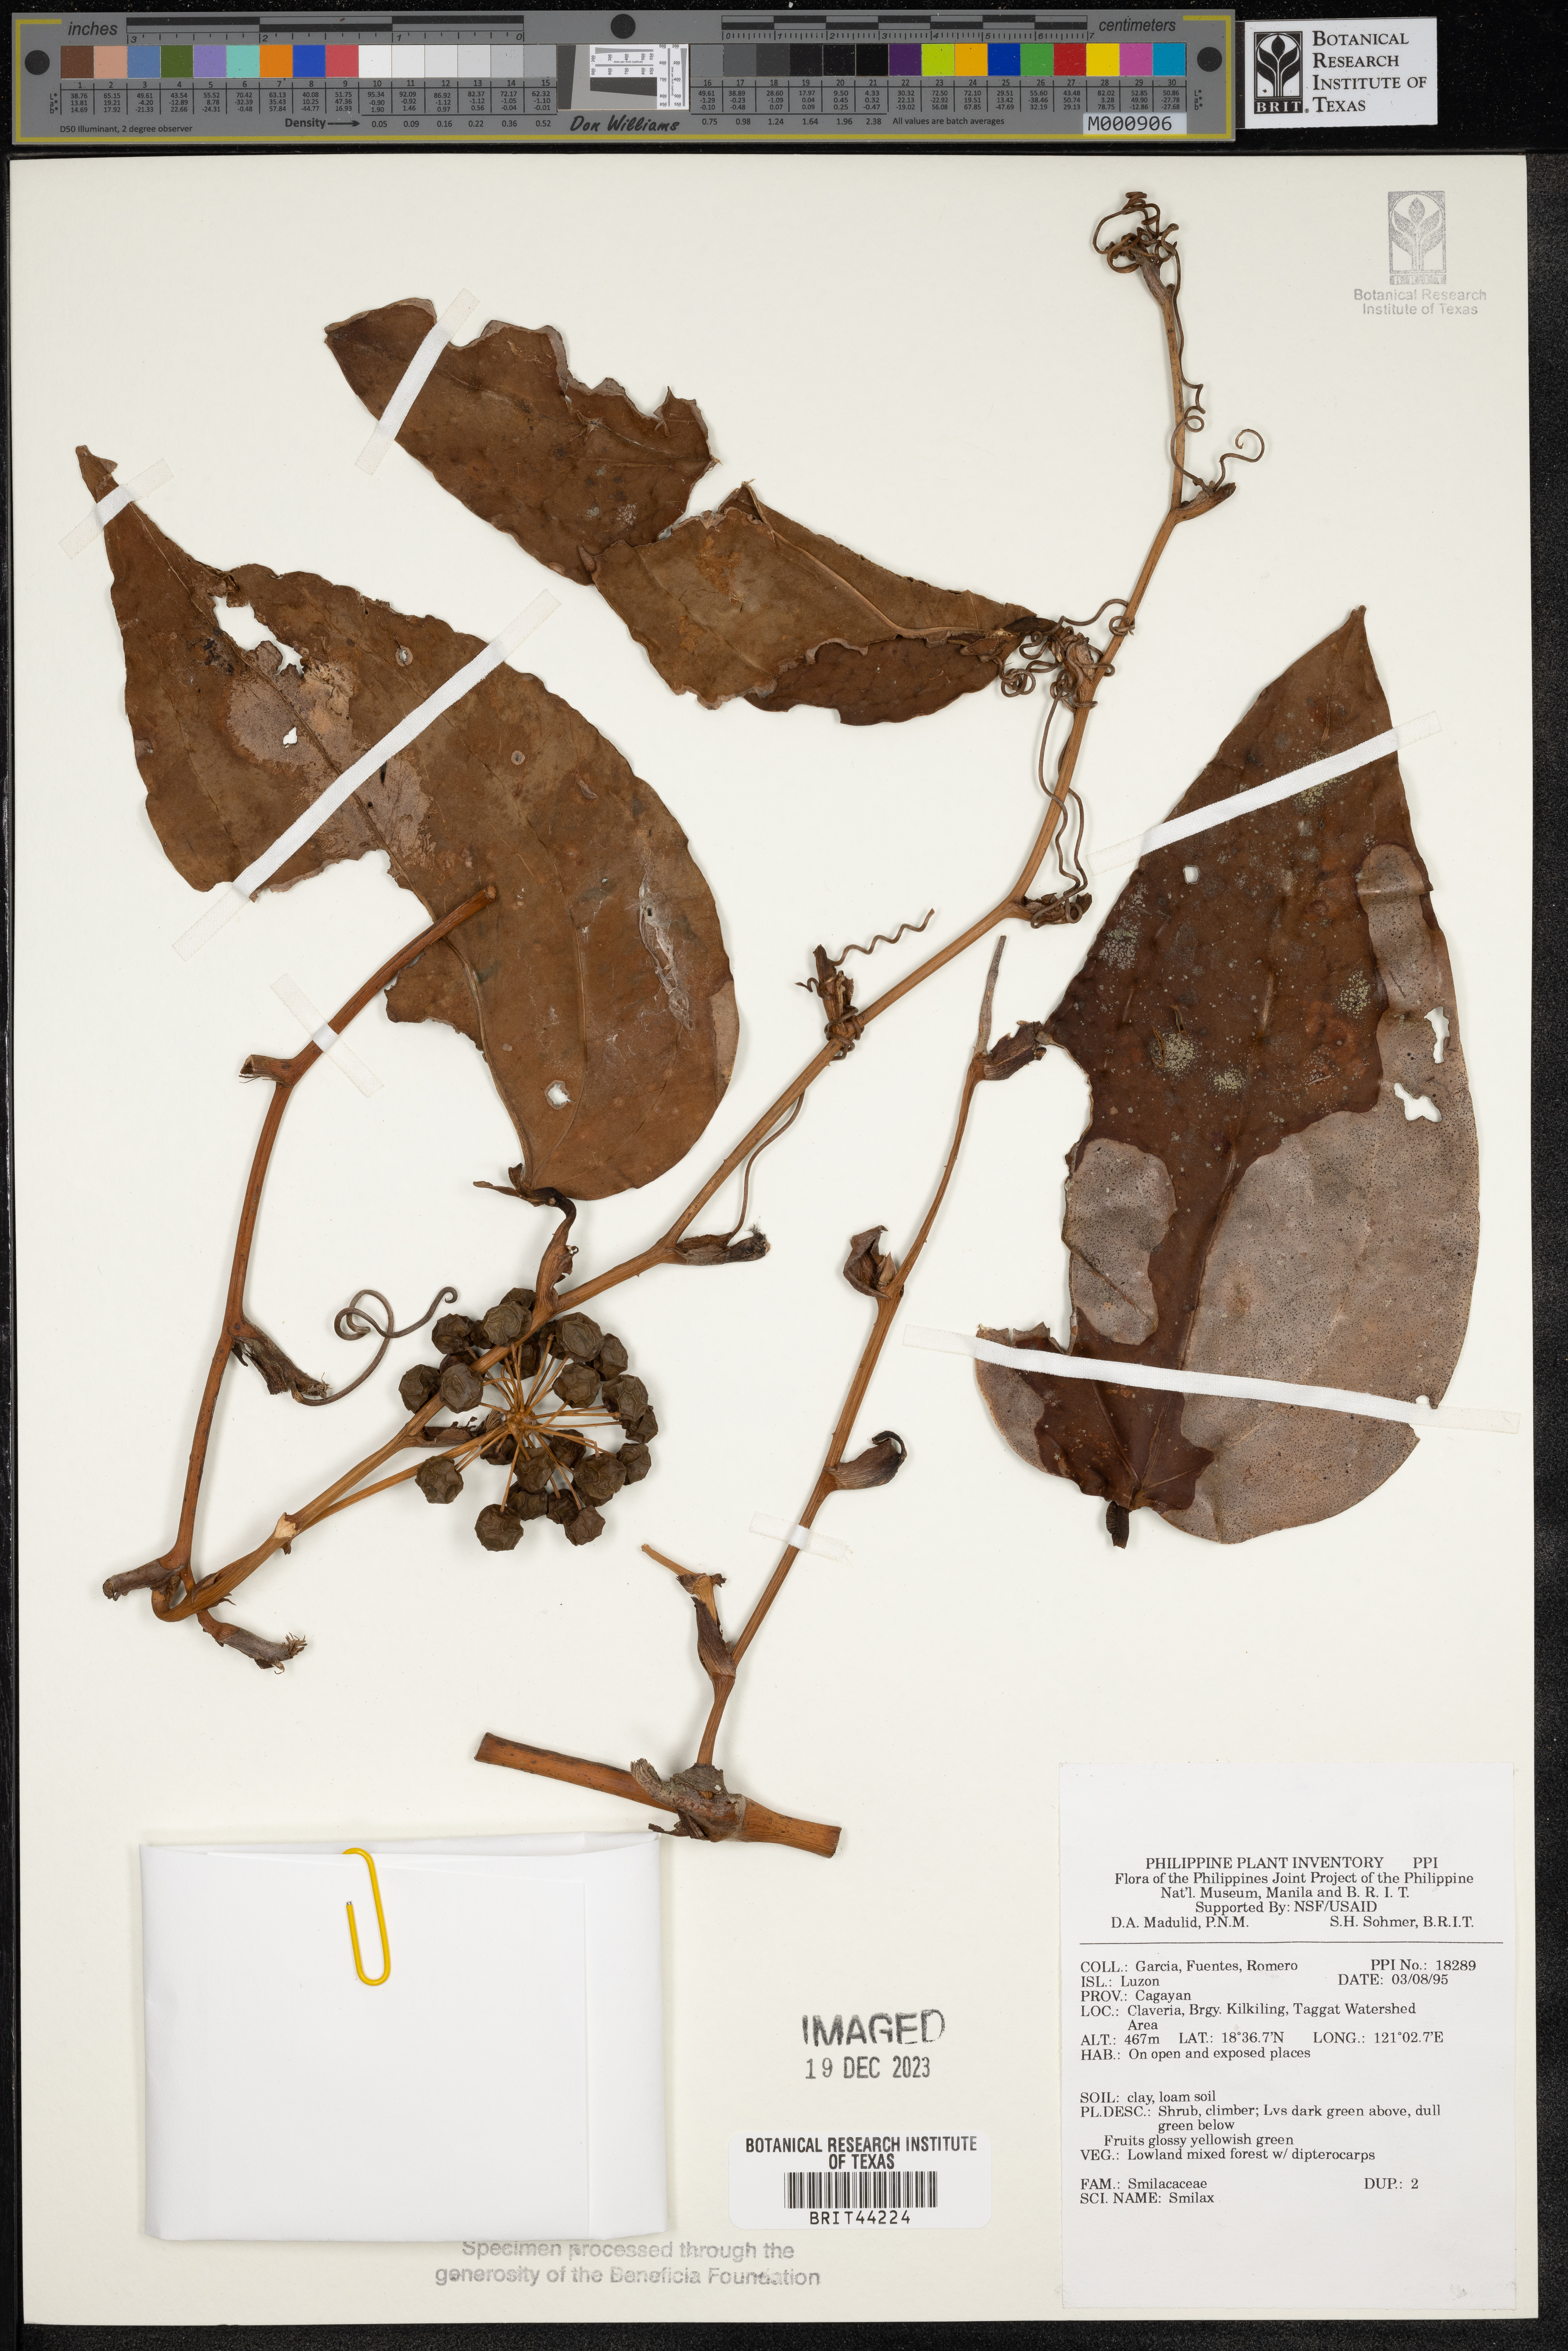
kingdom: Plantae
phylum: Tracheophyta
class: Liliopsida
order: Liliales
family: Smilacaceae
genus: Smilax
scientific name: Smilax
